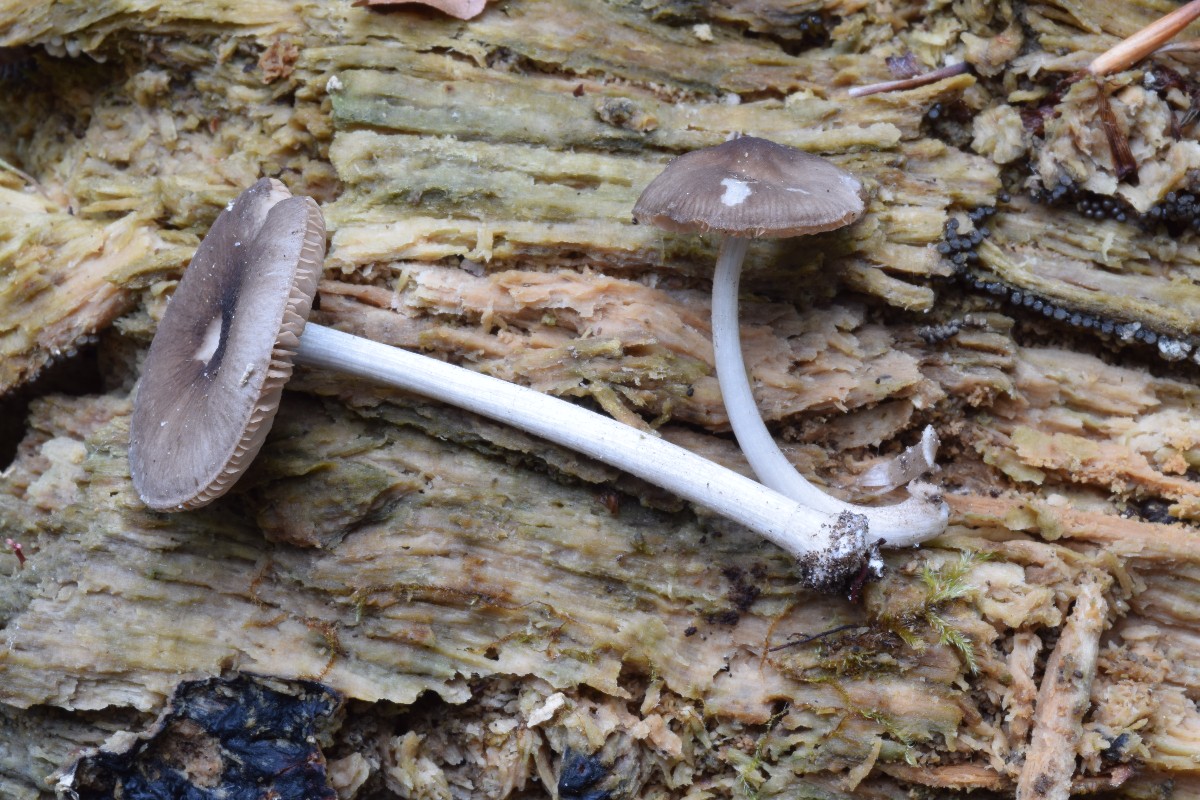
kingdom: Fungi
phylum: Basidiomycota
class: Agaricomycetes
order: Agaricales
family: Pluteaceae
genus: Pluteus
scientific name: Pluteus
